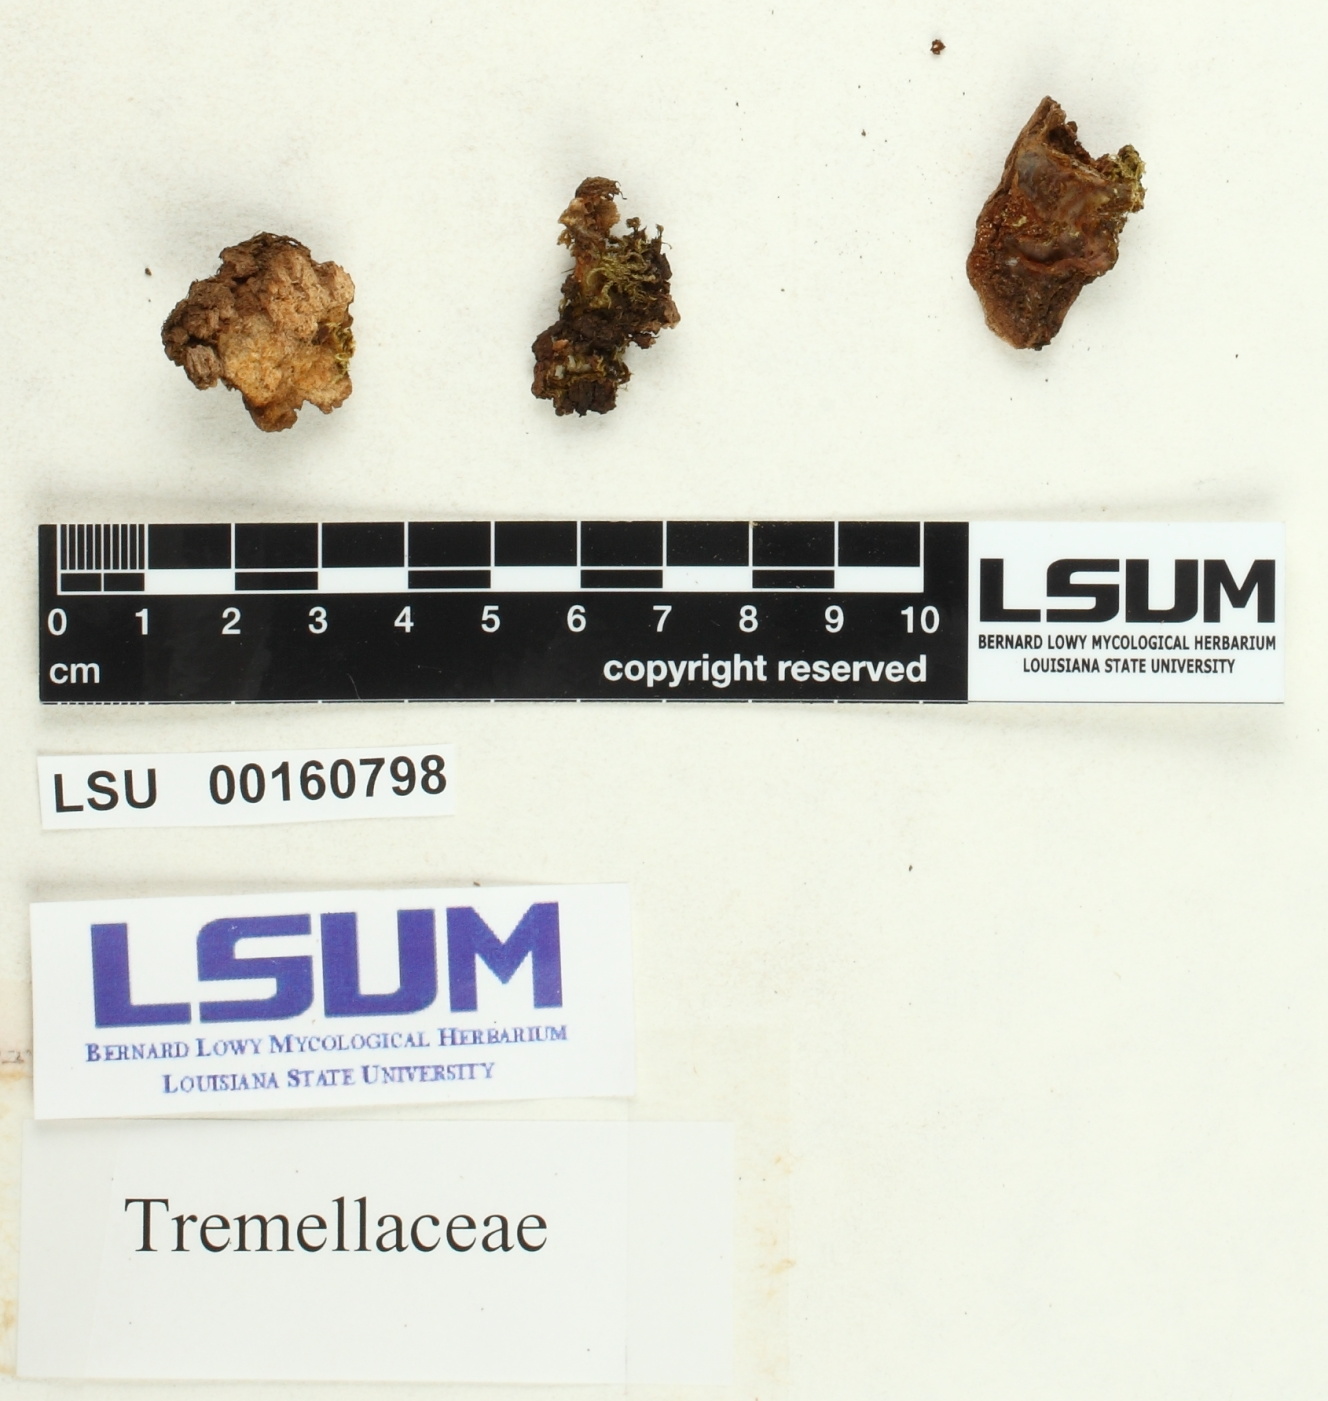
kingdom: Fungi
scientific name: Fungi
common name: Fungi
